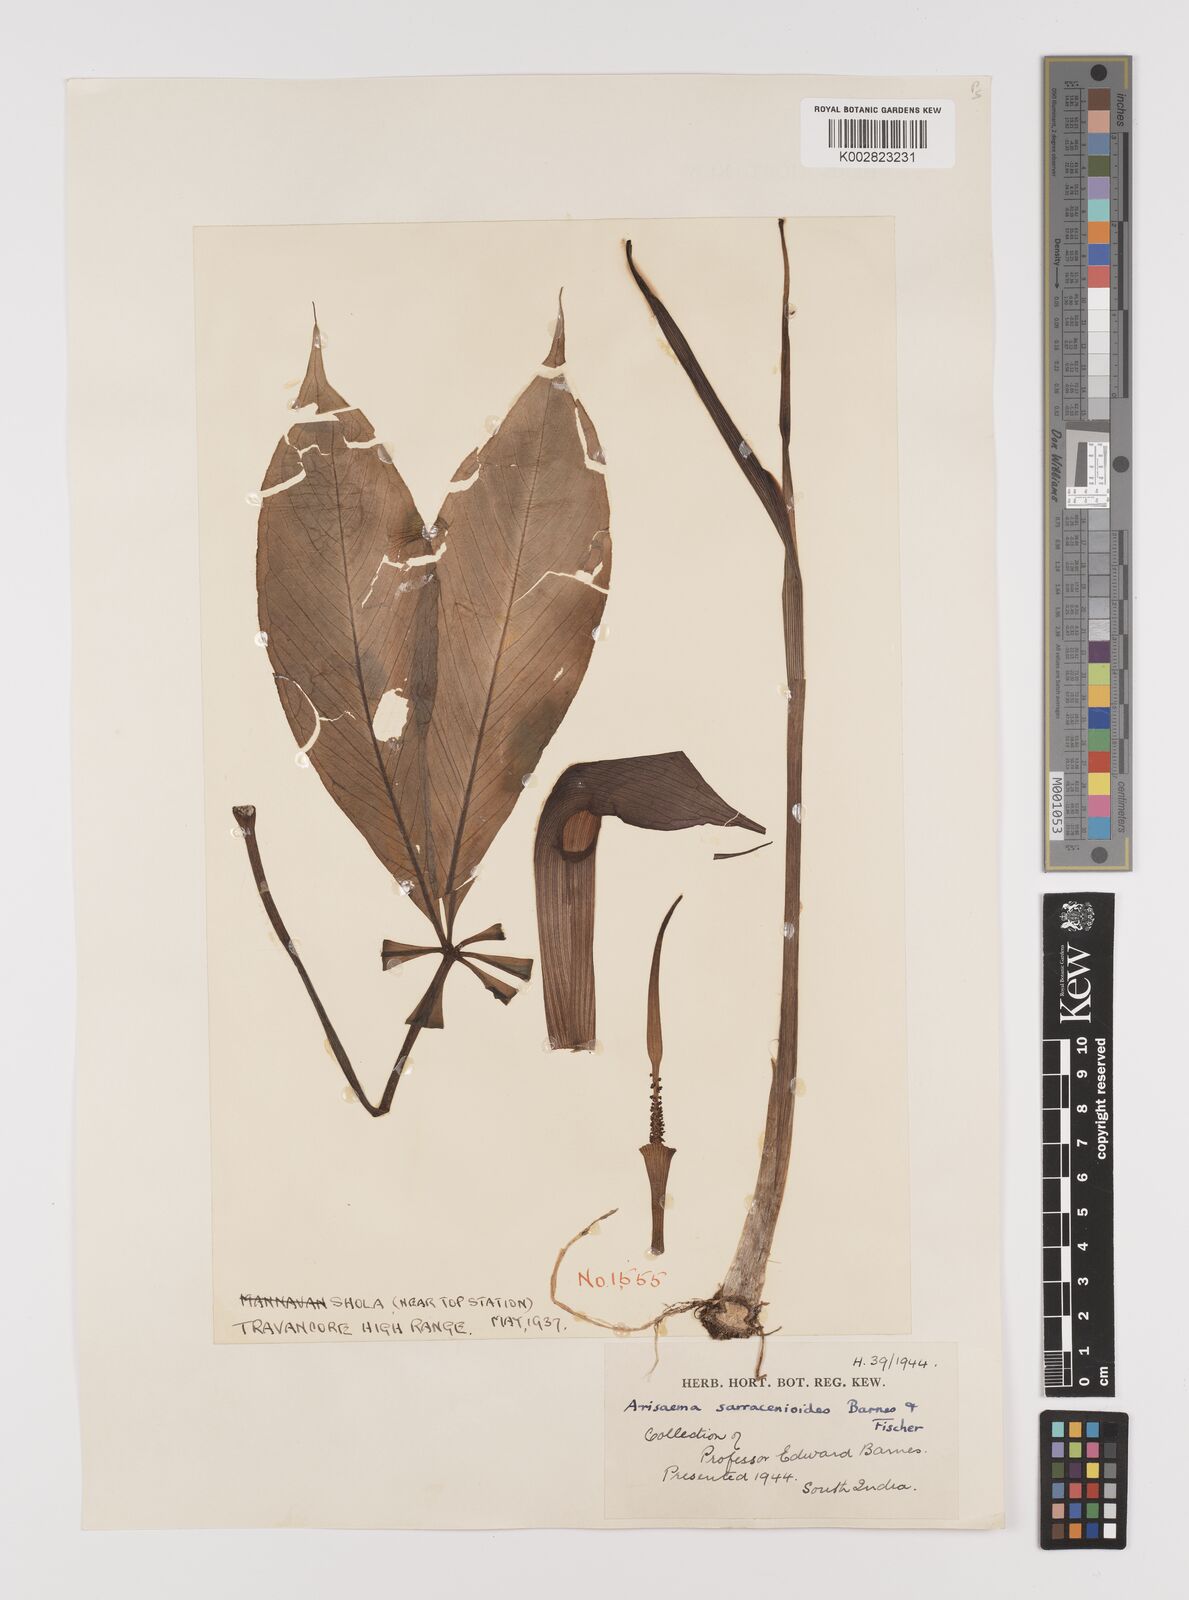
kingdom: Plantae
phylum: Tracheophyta
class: Liliopsida
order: Alismatales
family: Araceae
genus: Arisaema
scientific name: Arisaema sarracenioides
